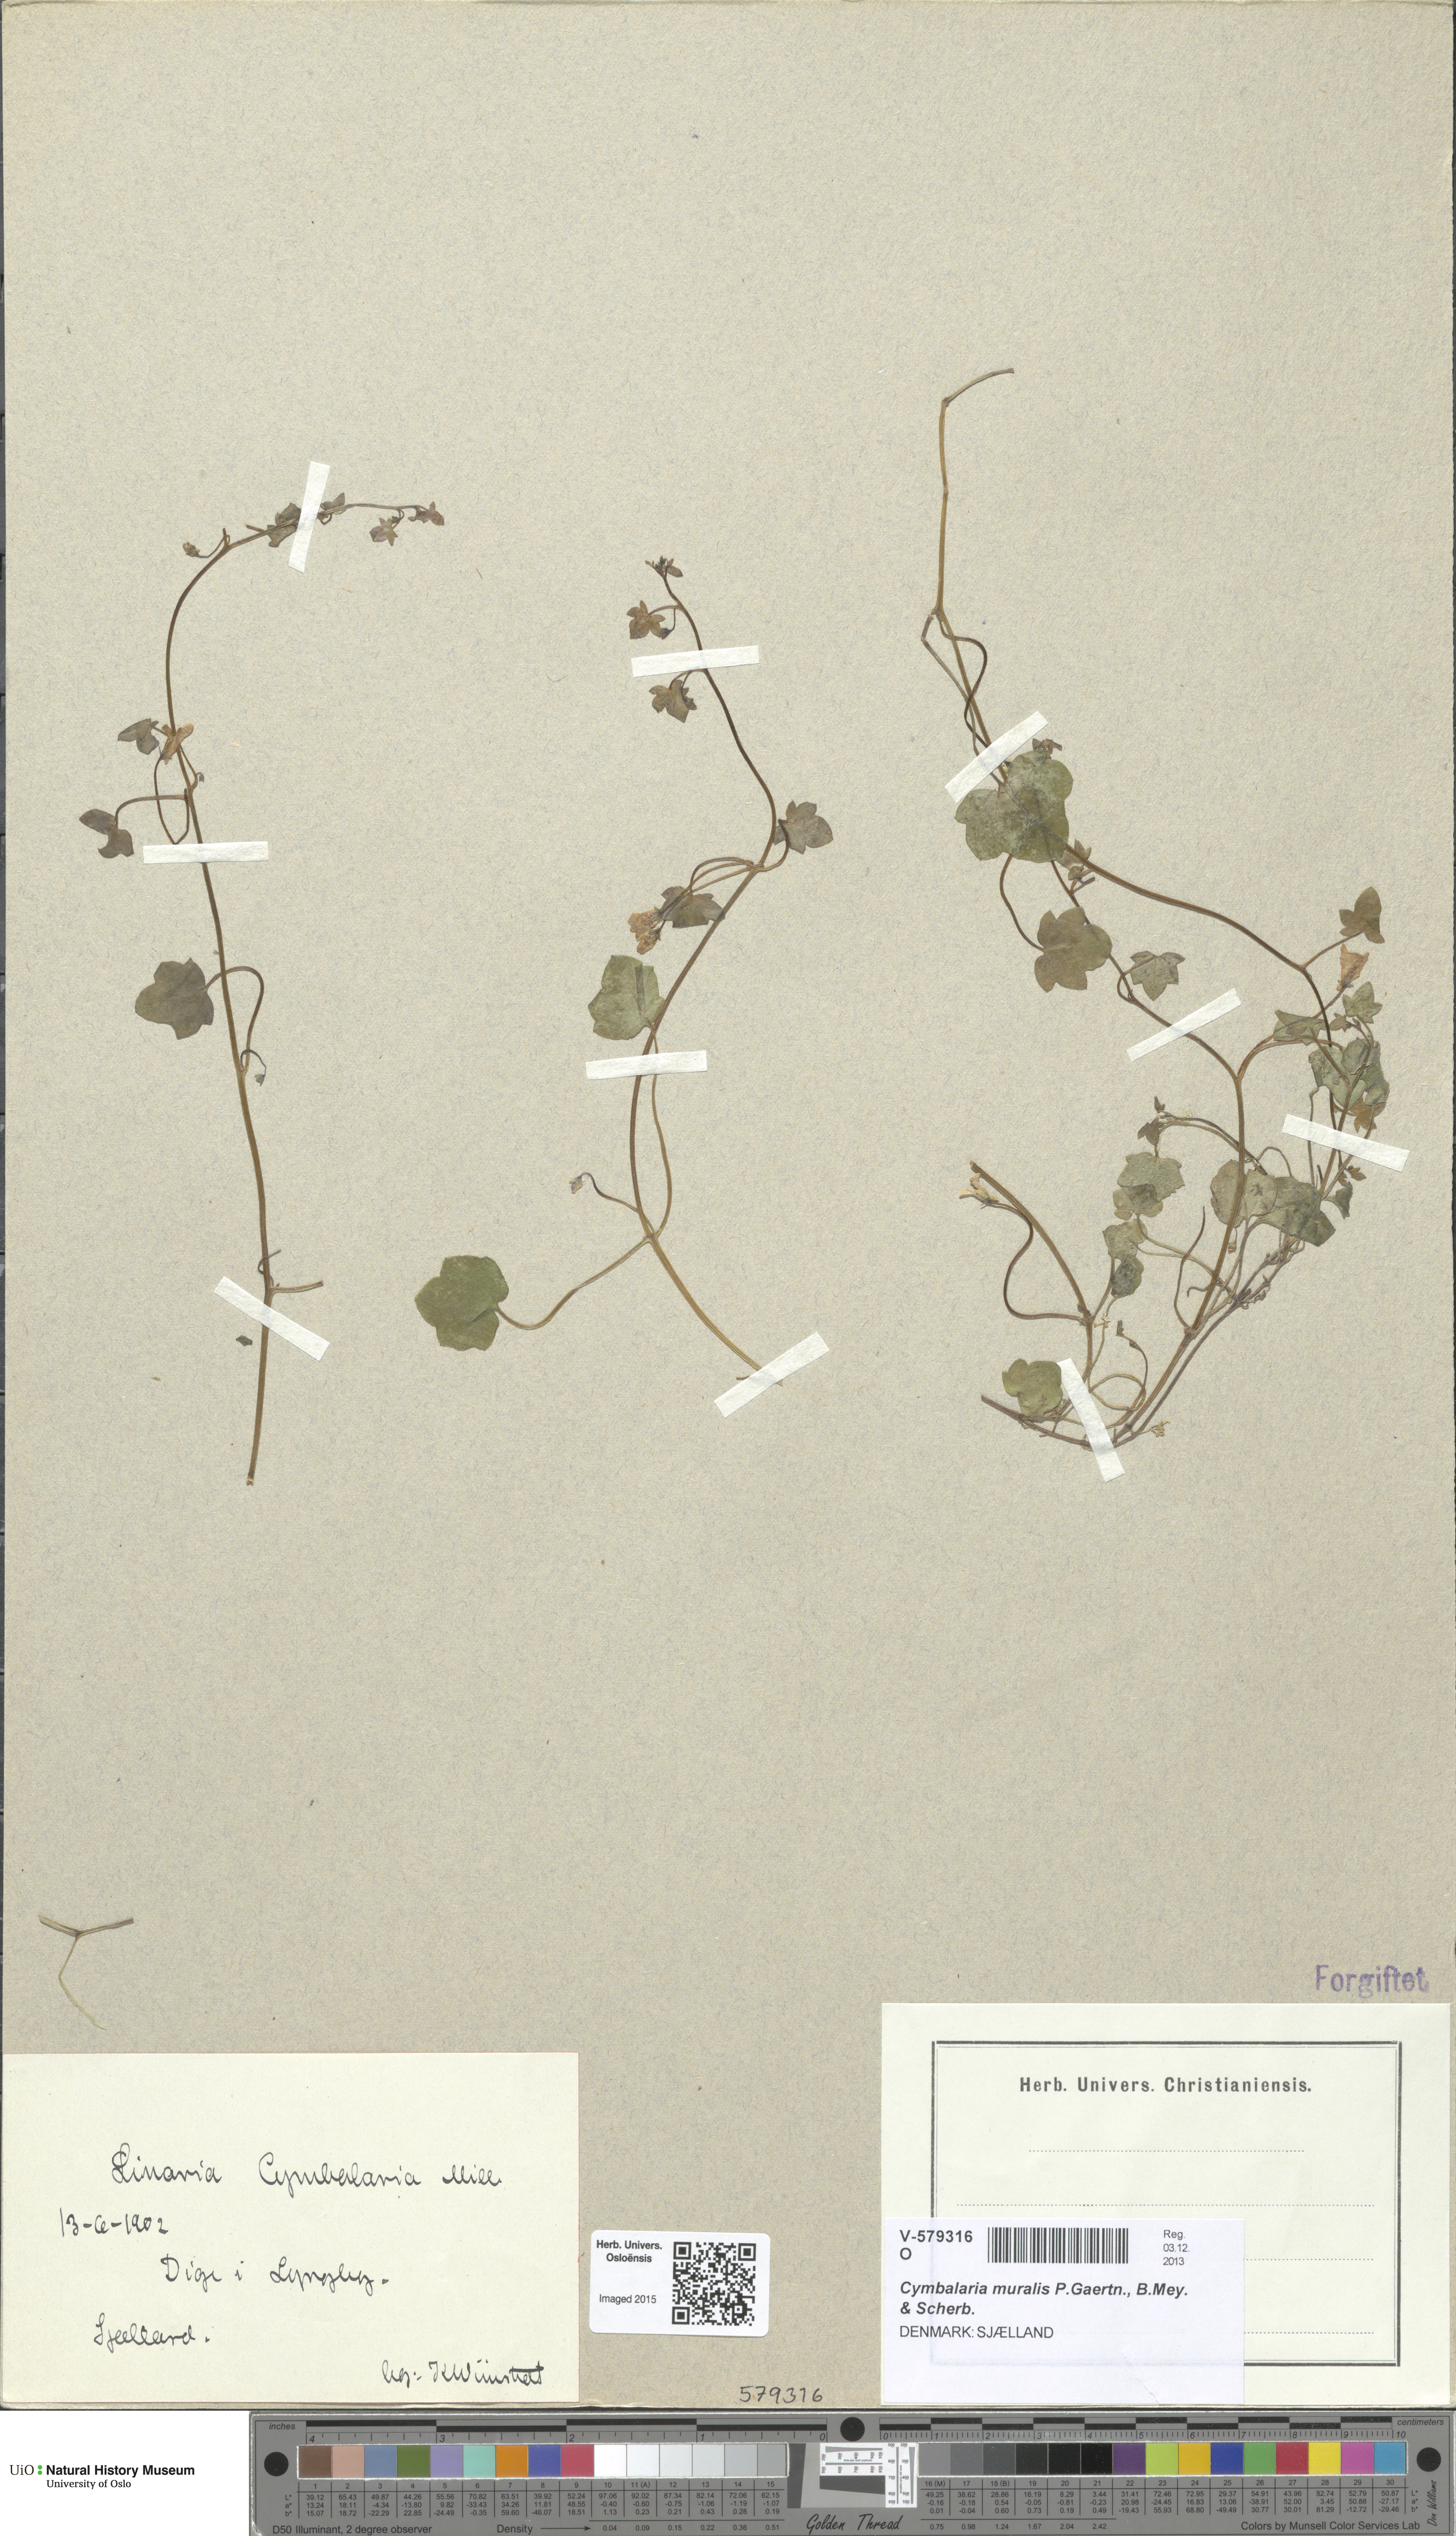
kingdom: Plantae
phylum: Tracheophyta
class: Magnoliopsida
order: Lamiales
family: Plantaginaceae
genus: Cymbalaria
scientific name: Cymbalaria muralis
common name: Ivy-leaved toadflax
